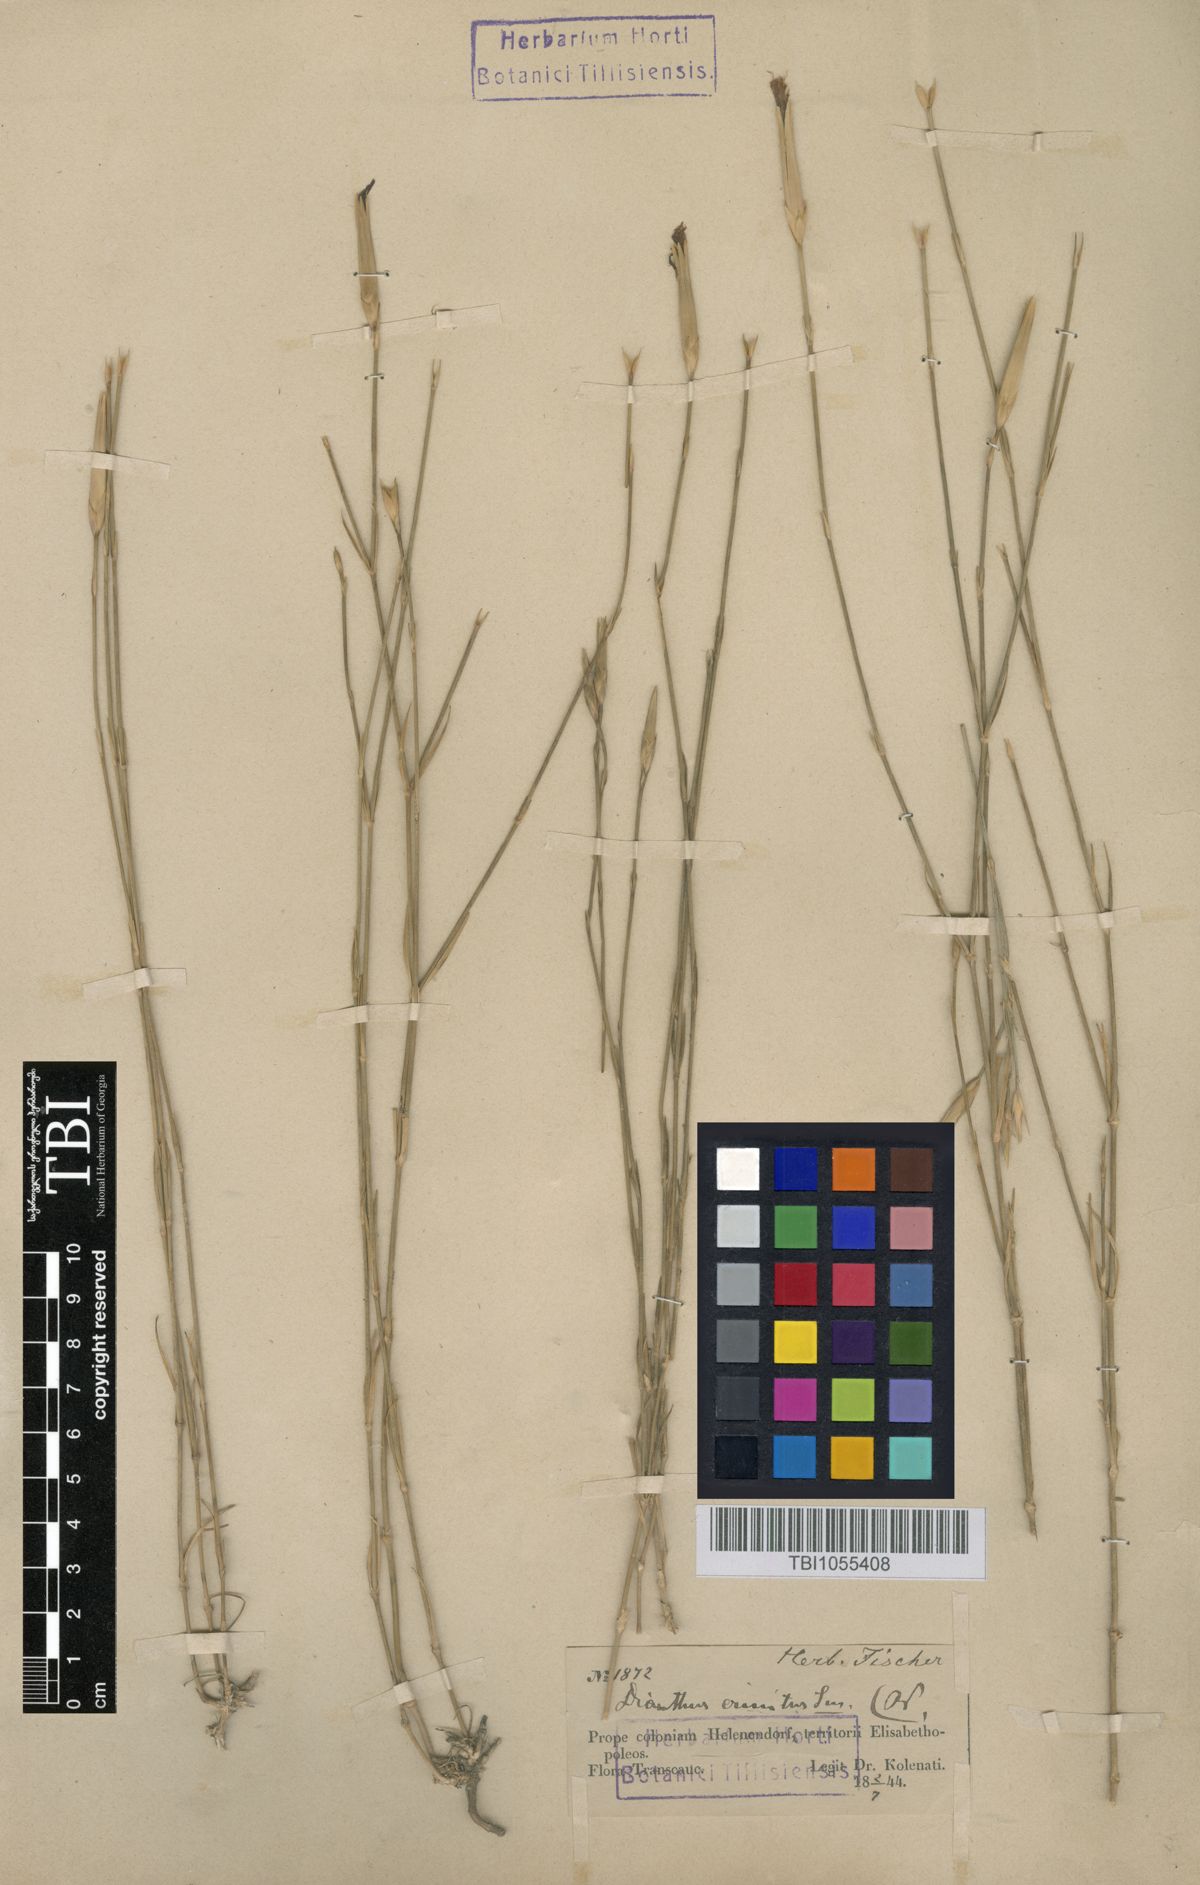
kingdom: Plantae
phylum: Tracheophyta
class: Magnoliopsida
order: Caryophyllales
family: Caryophyllaceae
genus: Dianthus
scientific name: Dianthus crinitus
